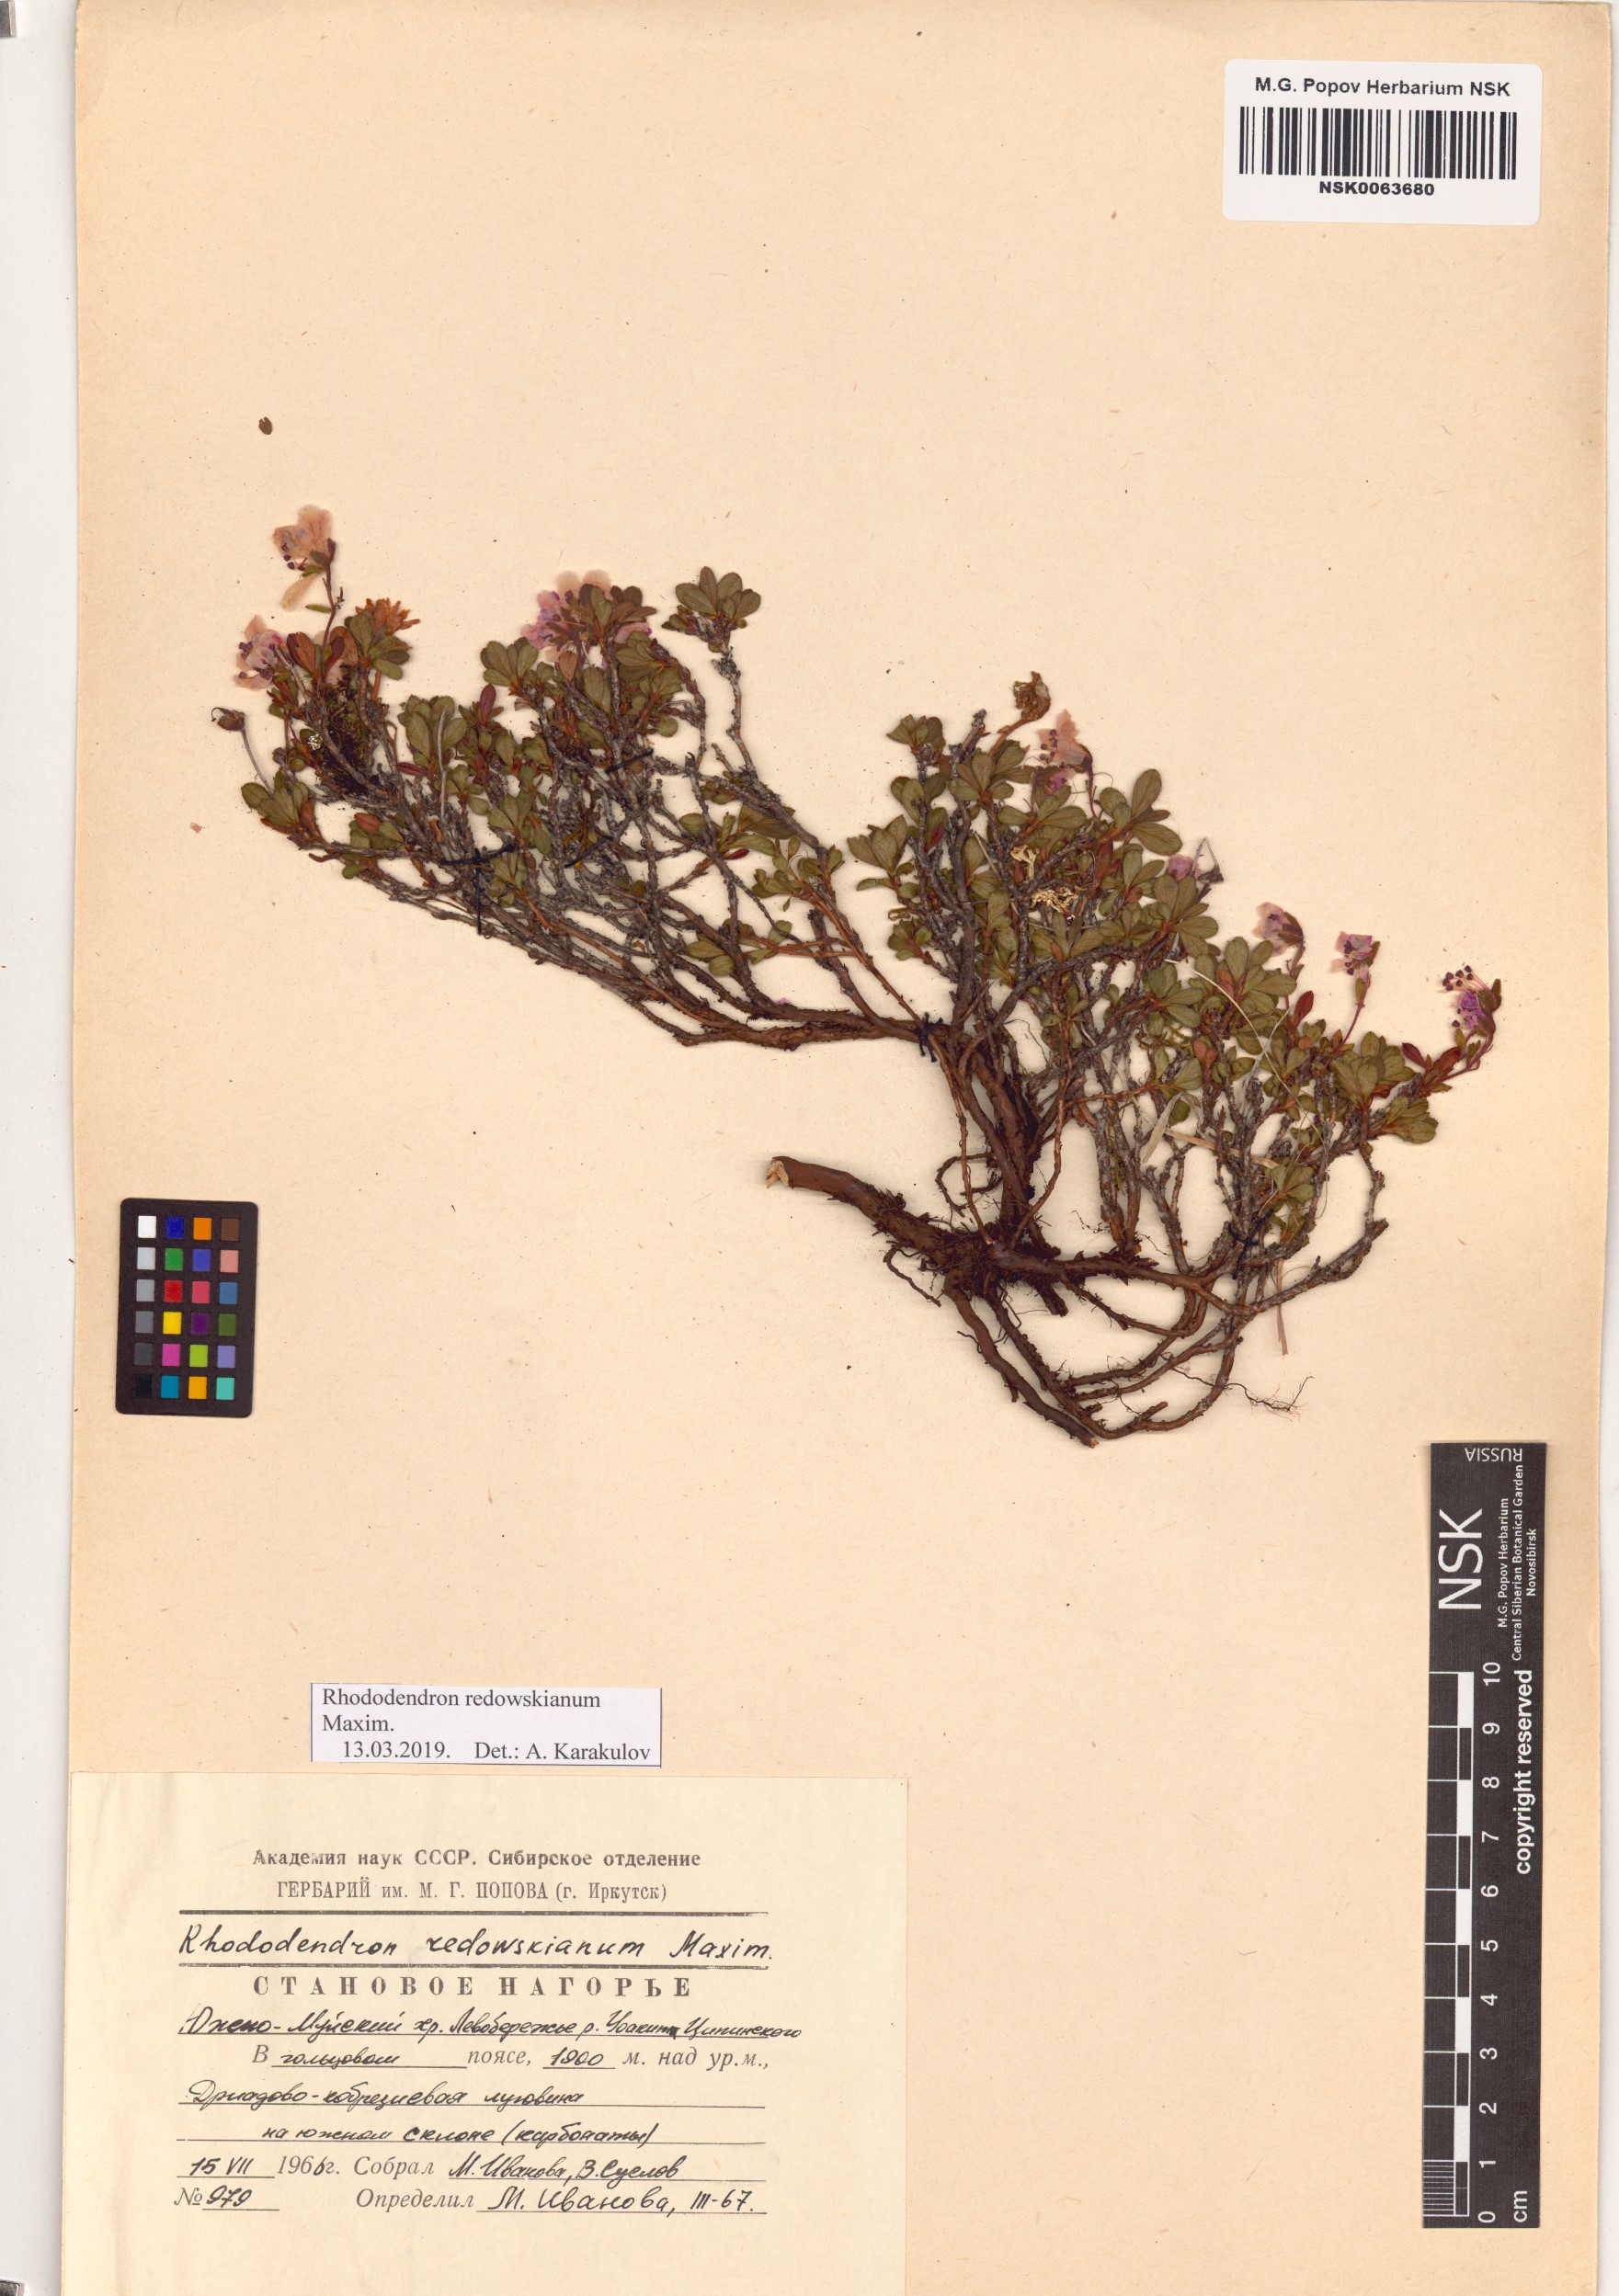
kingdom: Plantae
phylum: Tracheophyta
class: Magnoliopsida
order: Ericales
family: Ericaceae
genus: Rhododendron
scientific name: Rhododendron redowskianum
